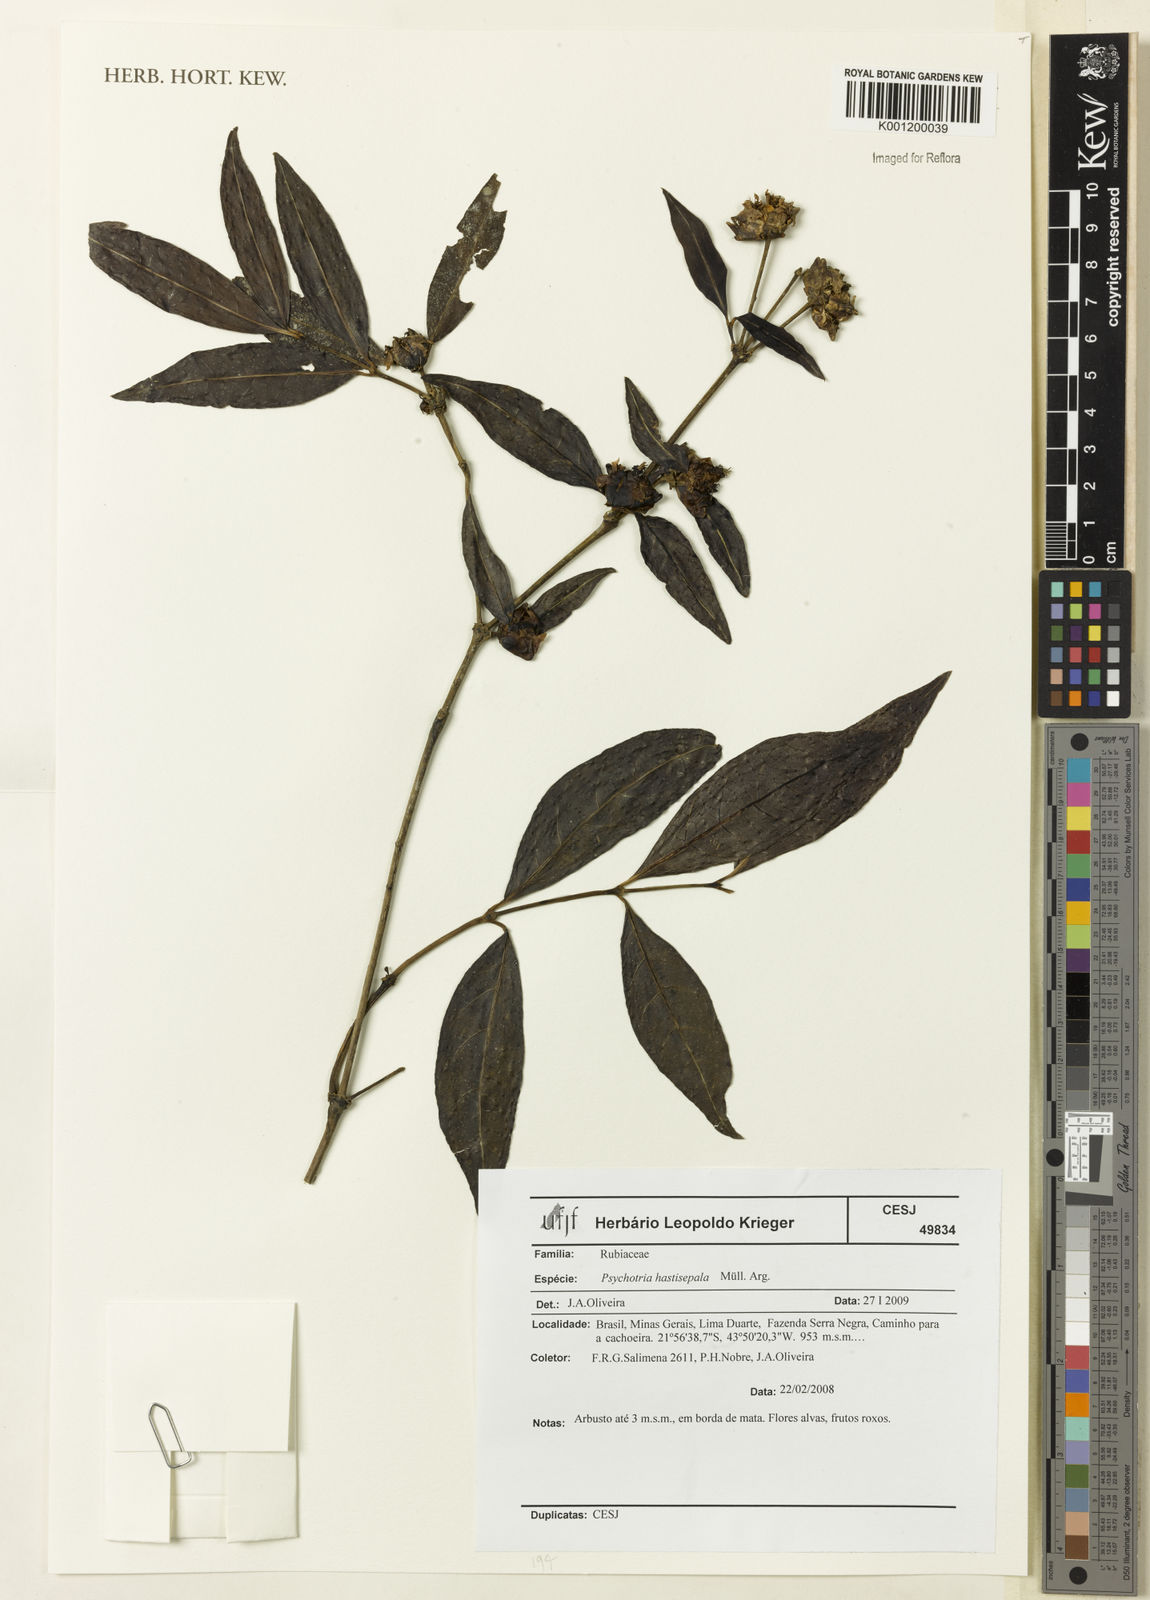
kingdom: Plantae
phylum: Tracheophyta
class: Magnoliopsida
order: Gentianales
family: Rubiaceae
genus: Psychotria
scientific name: Psychotria
